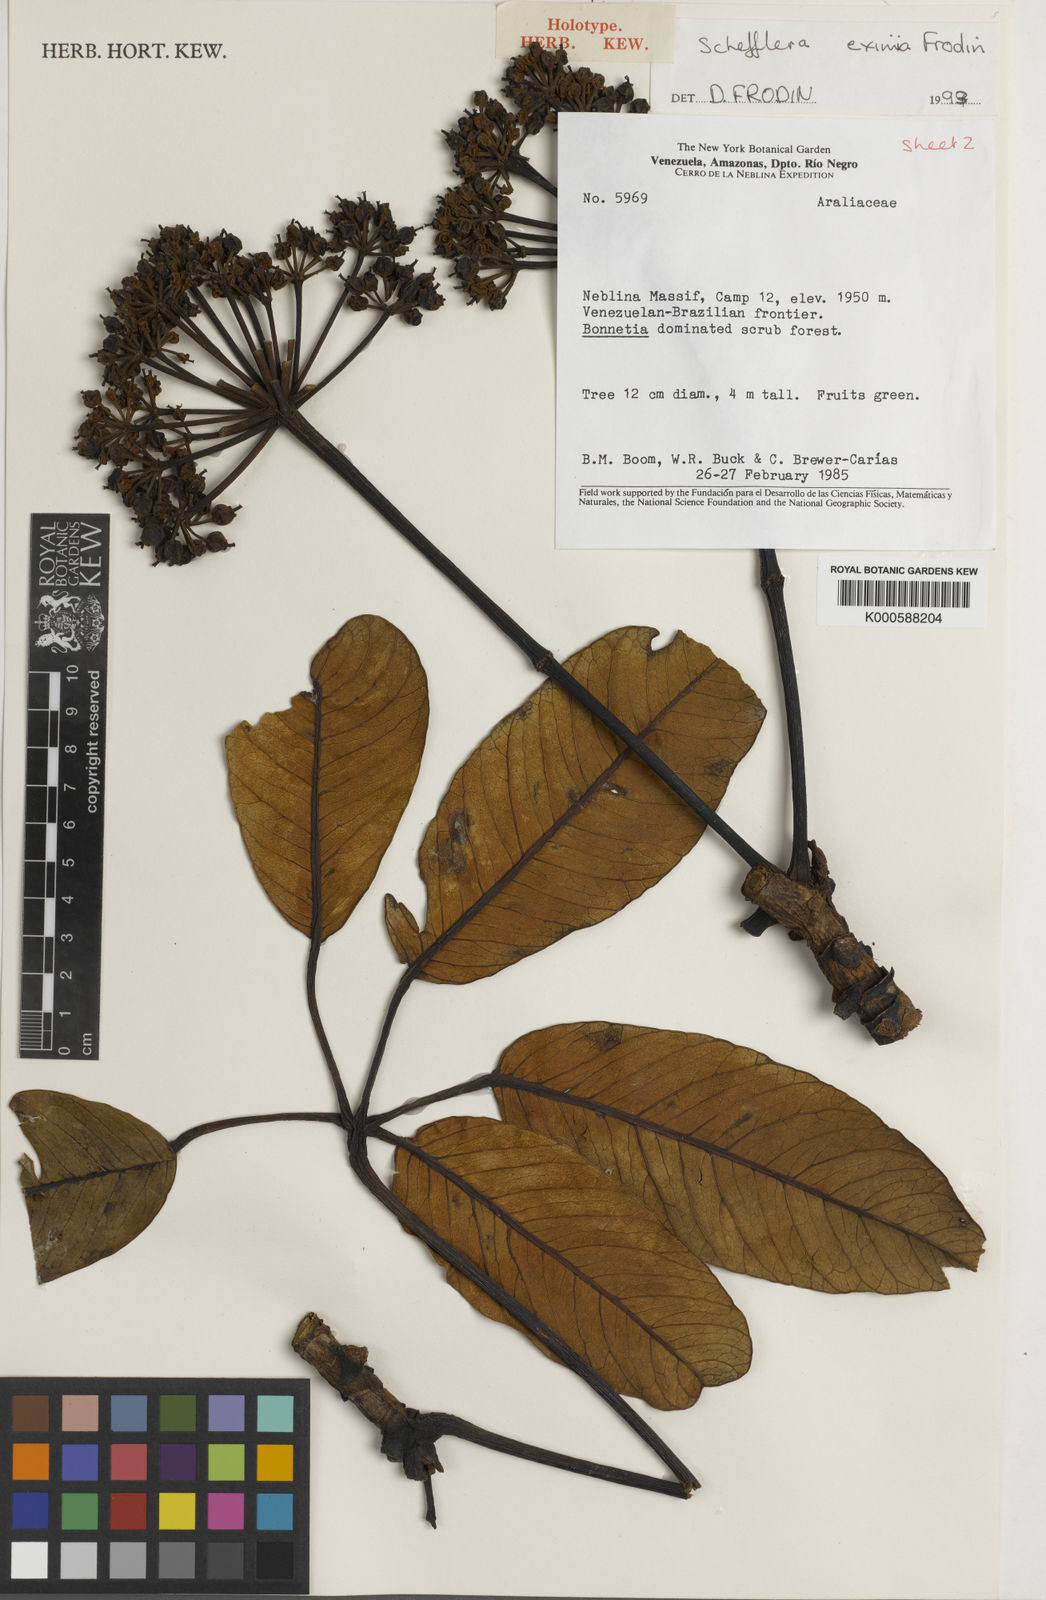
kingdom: Plantae
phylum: Tracheophyta
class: Magnoliopsida
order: Apiales
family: Araliaceae
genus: Crepinella
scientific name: Crepinella
